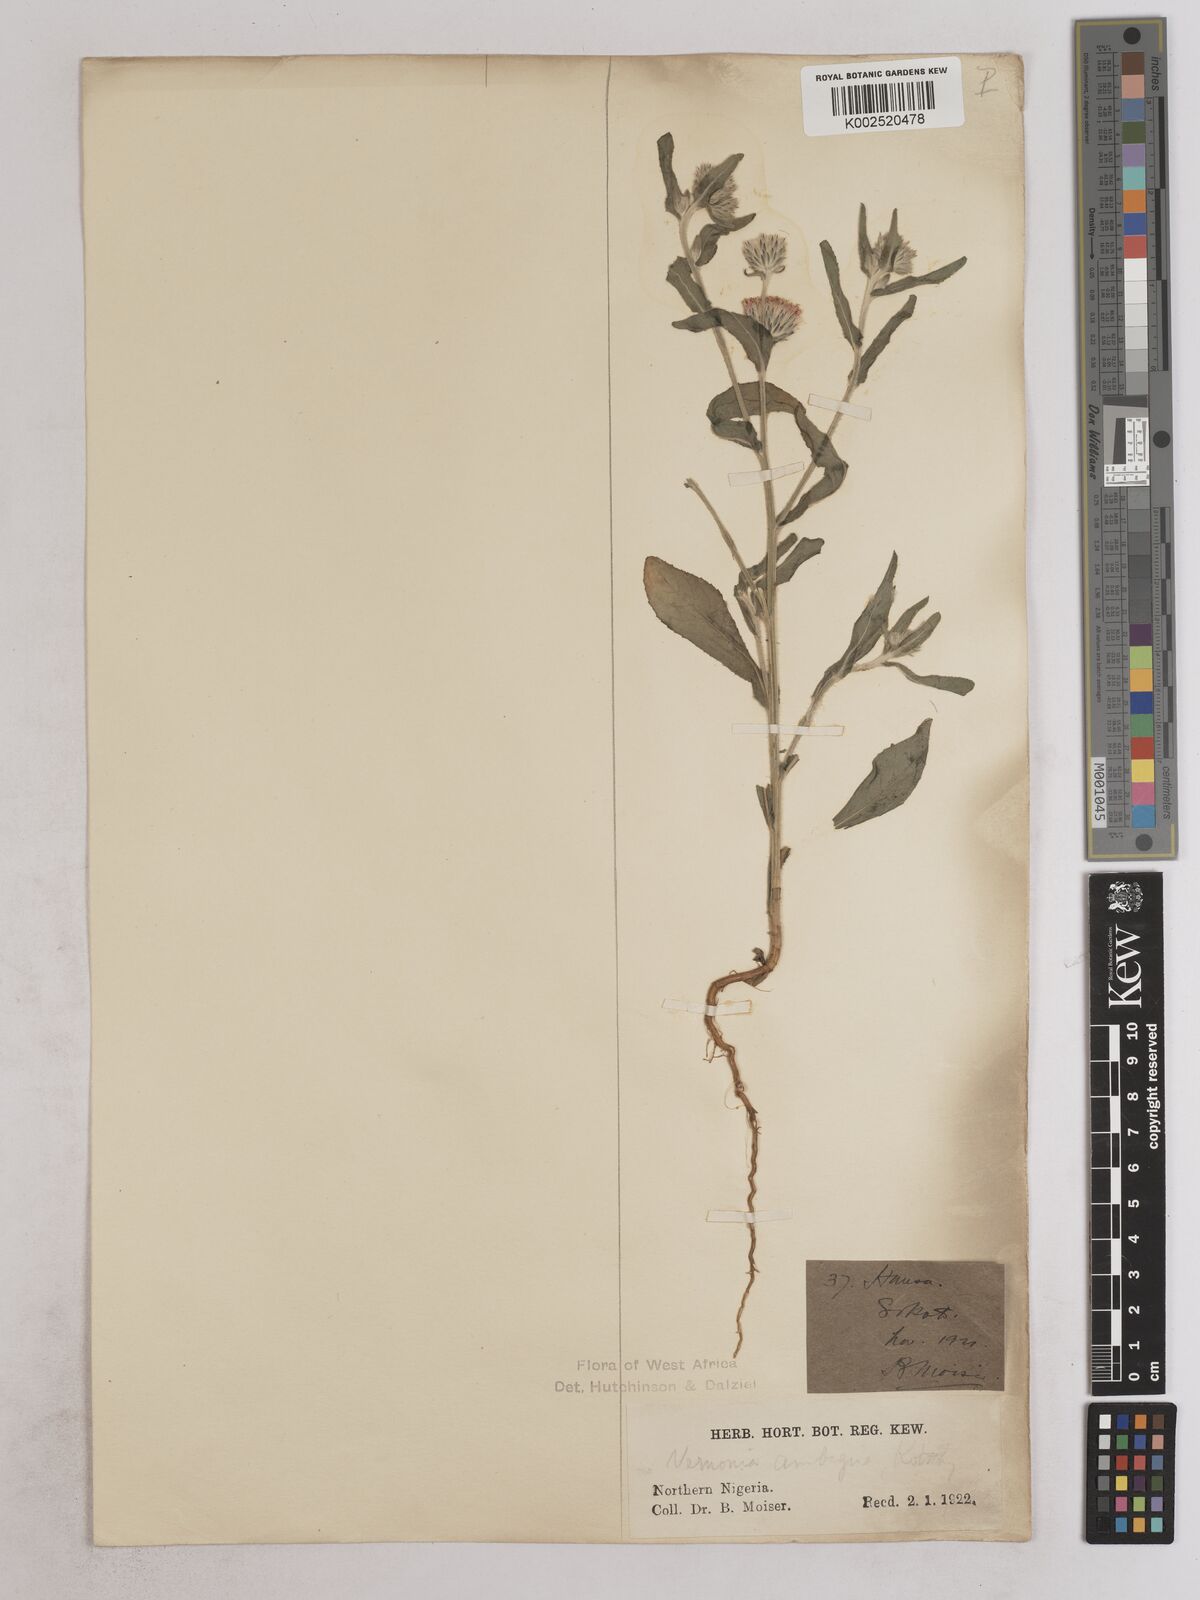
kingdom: Plantae
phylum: Tracheophyta
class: Magnoliopsida
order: Asterales
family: Asteraceae
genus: Vernoniastrum
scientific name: Vernoniastrum ambiguum
